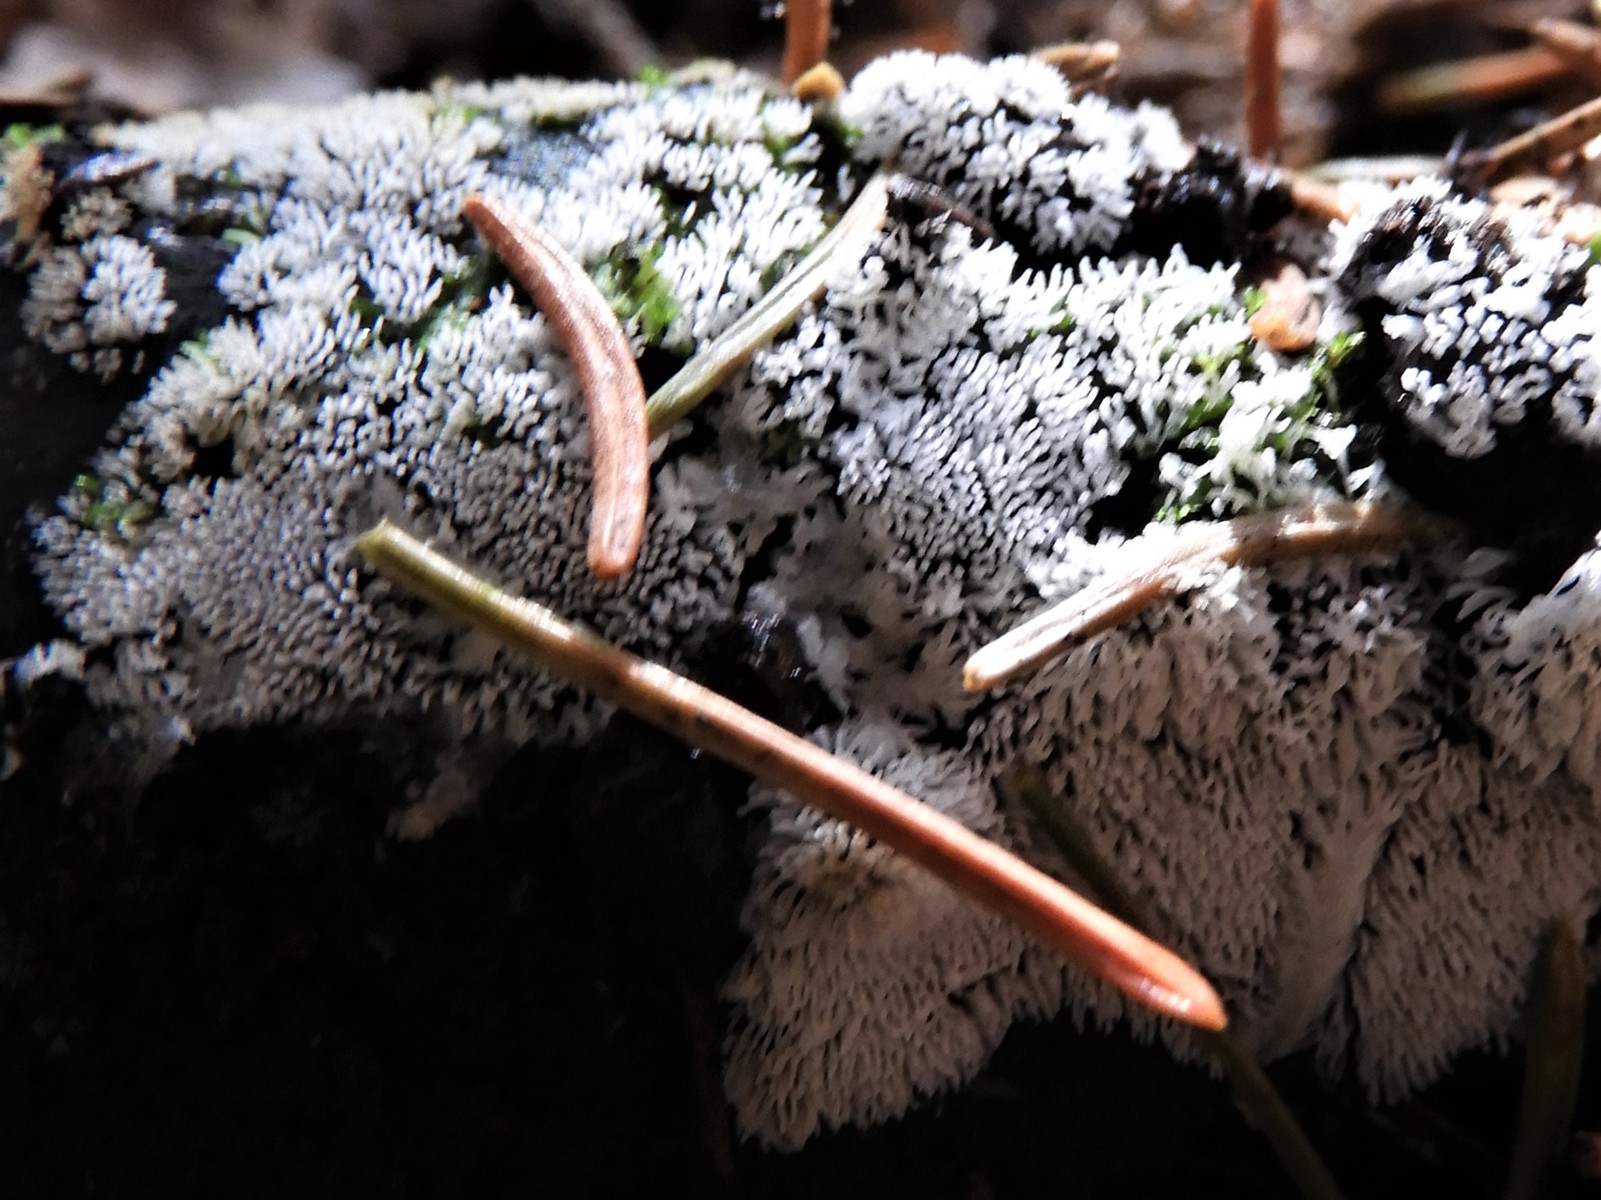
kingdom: Protozoa
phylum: Mycetozoa
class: Protosteliomycetes
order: Ceratiomyxales
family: Ceratiomyxaceae
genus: Ceratiomyxa
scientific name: Ceratiomyxa fruticulosa
